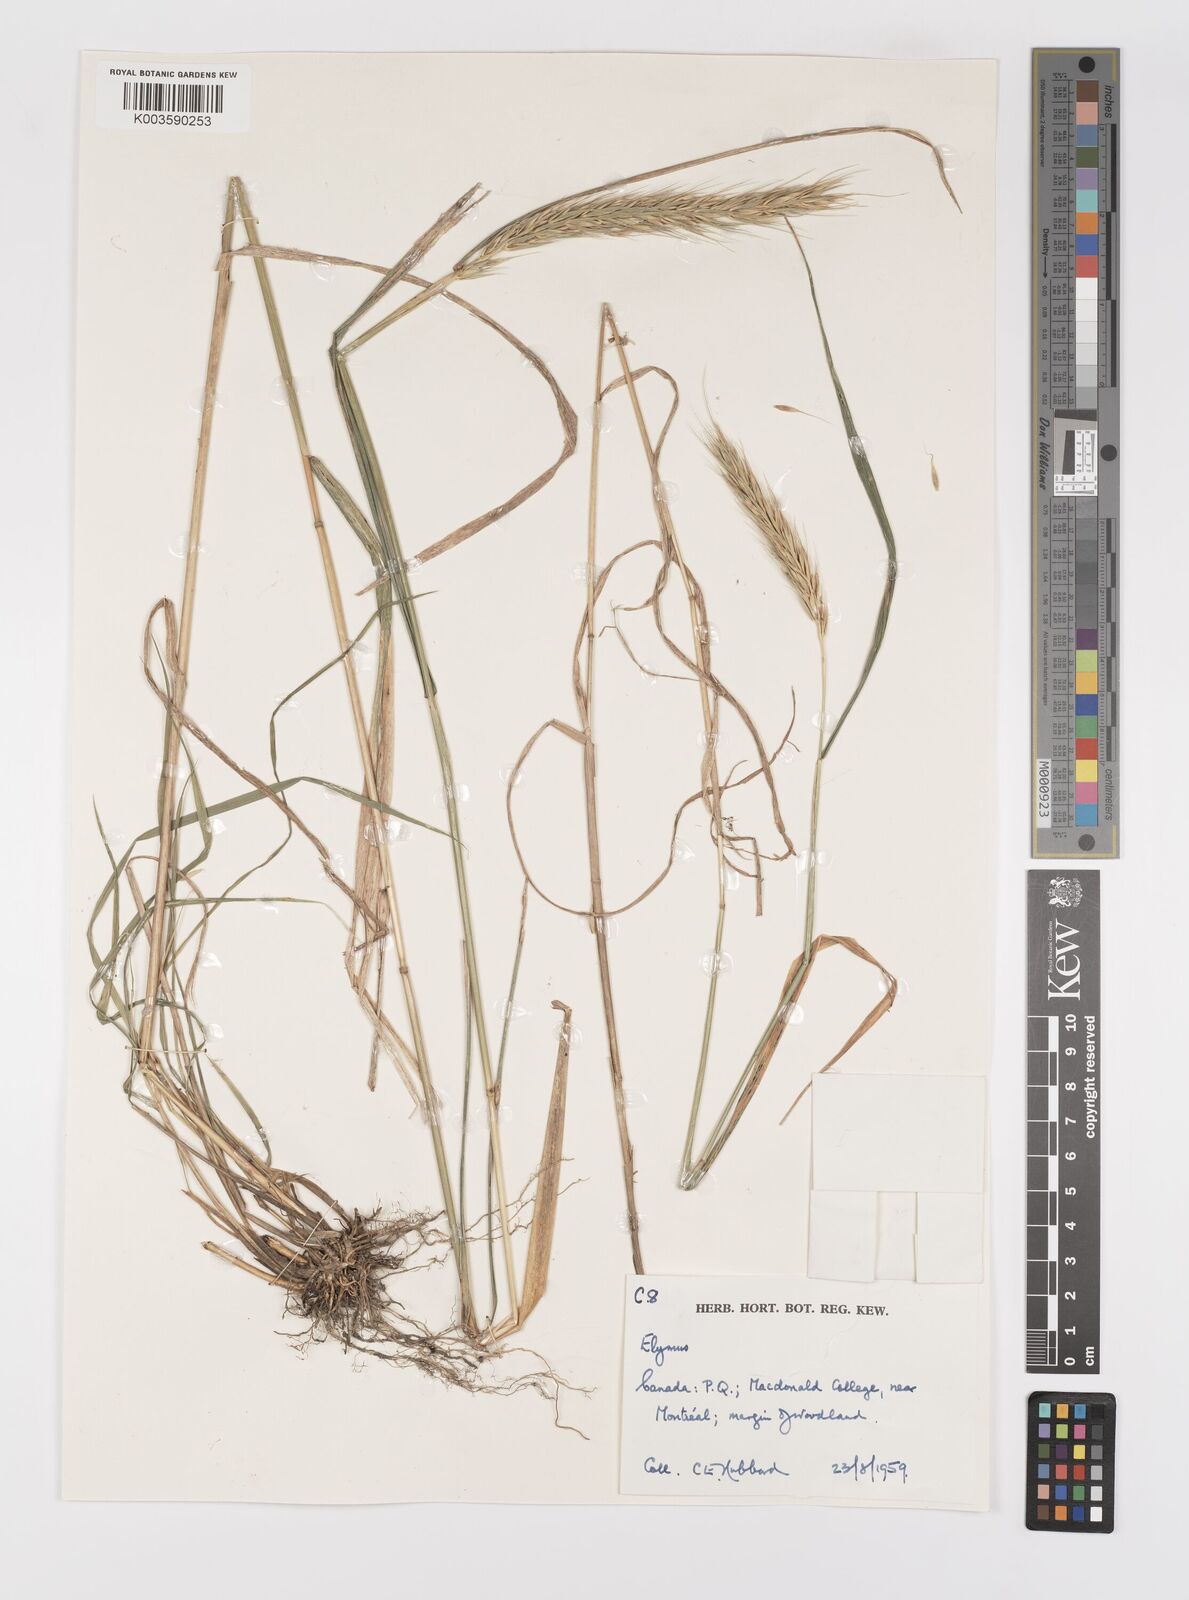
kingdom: Plantae
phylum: Tracheophyta
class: Liliopsida
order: Poales
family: Poaceae
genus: Elymus
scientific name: Elymus
